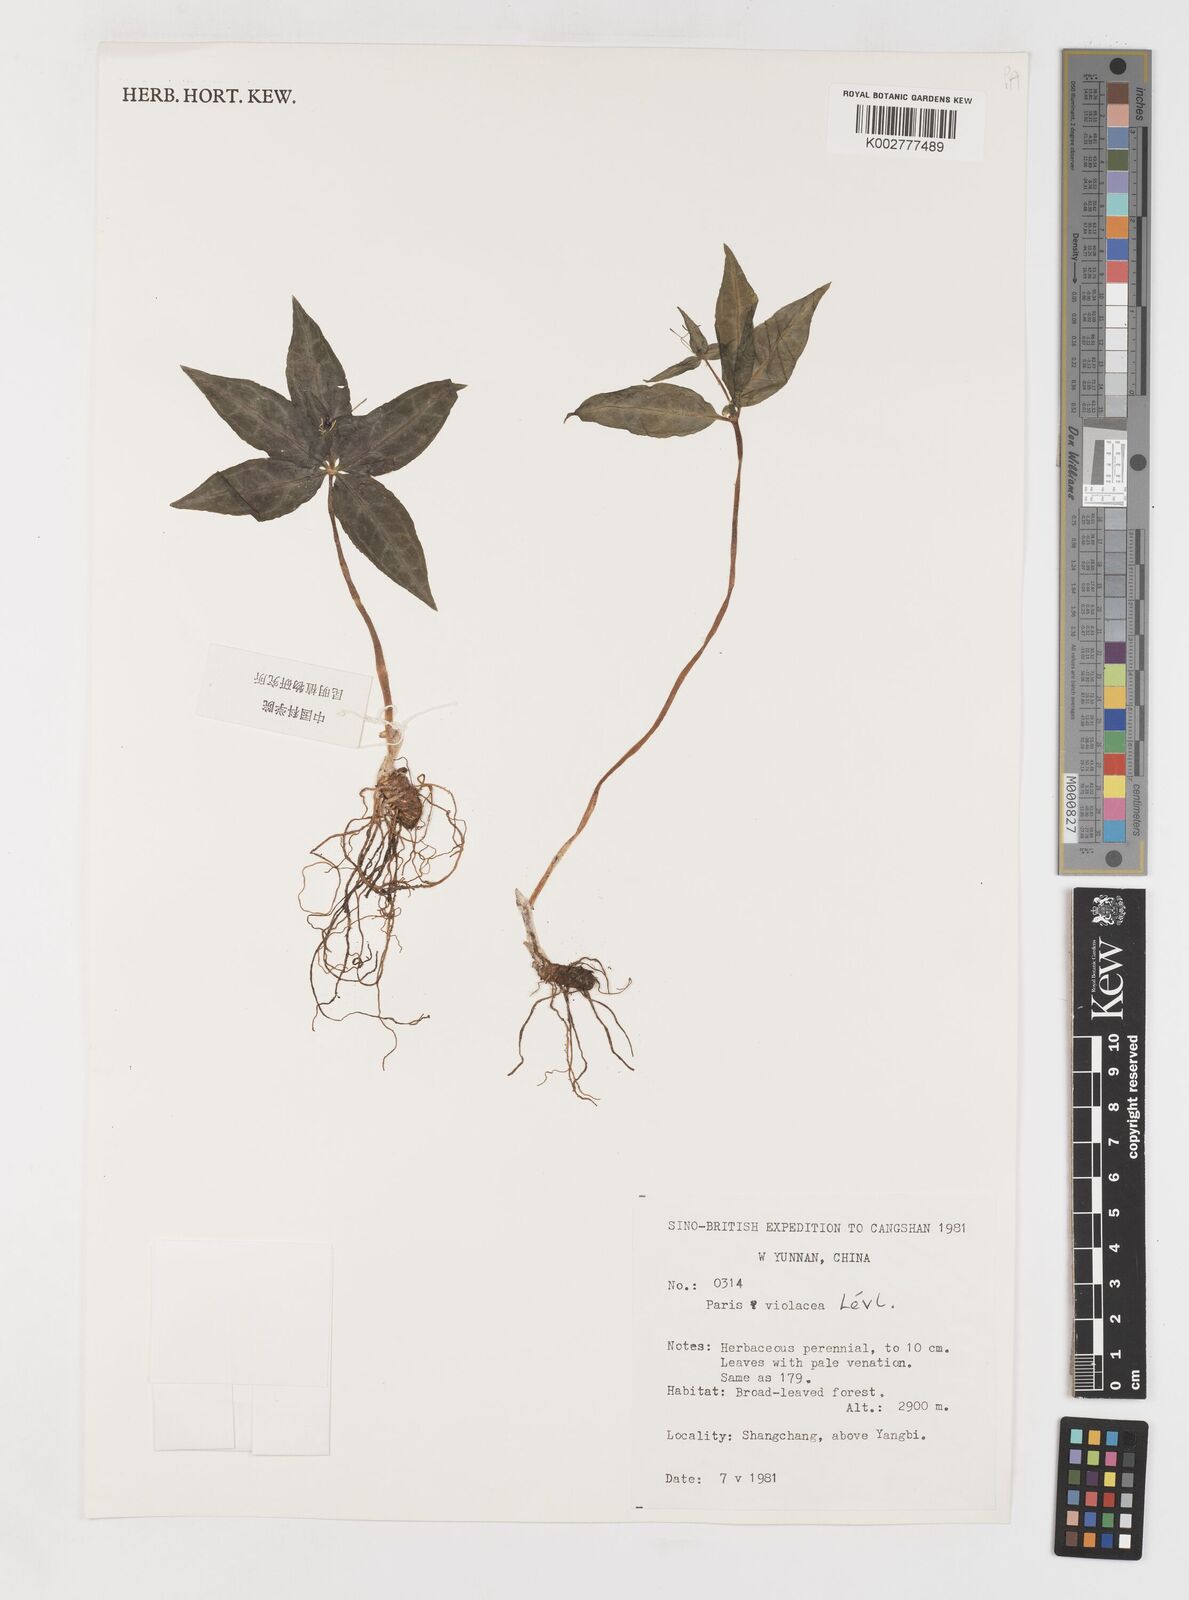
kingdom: Plantae
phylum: Tracheophyta
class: Liliopsida
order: Liliales
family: Melanthiaceae
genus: Paris
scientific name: Paris mairei
